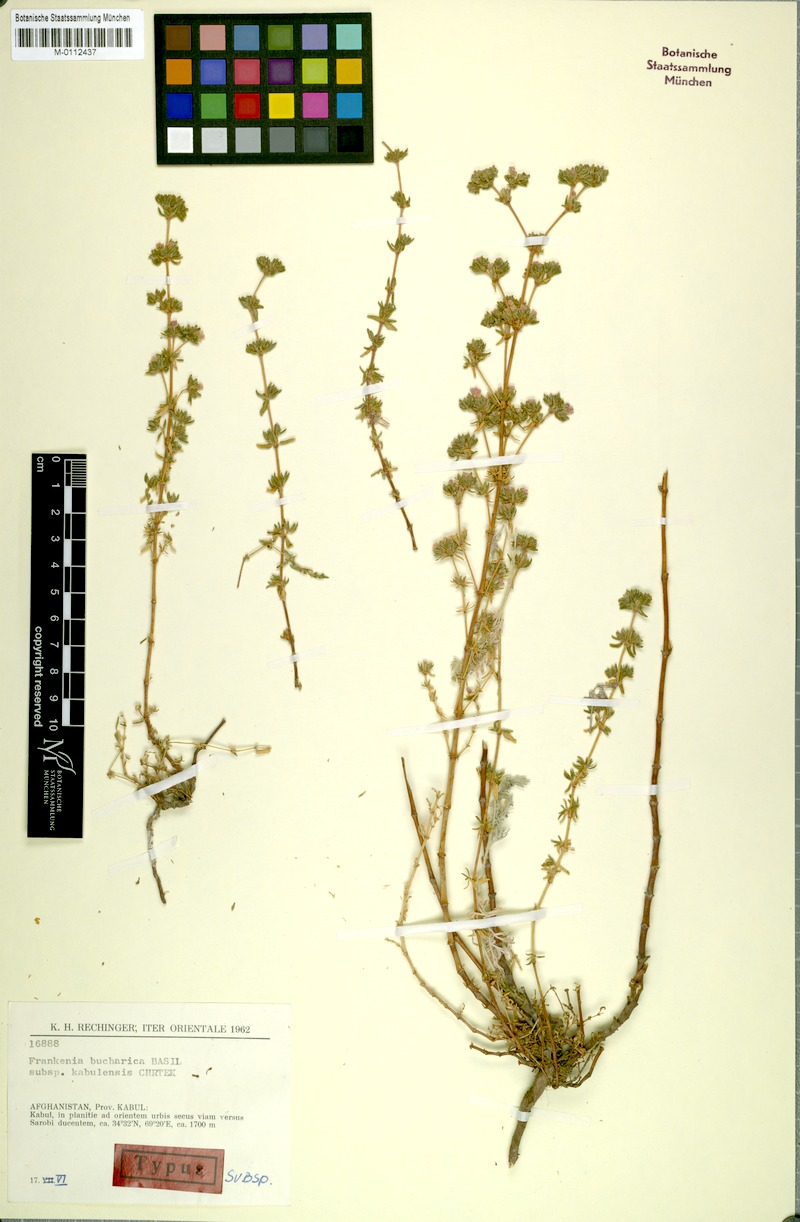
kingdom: Plantae
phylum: Tracheophyta
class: Magnoliopsida
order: Caryophyllales
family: Frankeniaceae
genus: Frankenia
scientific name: Frankenia bucharica
